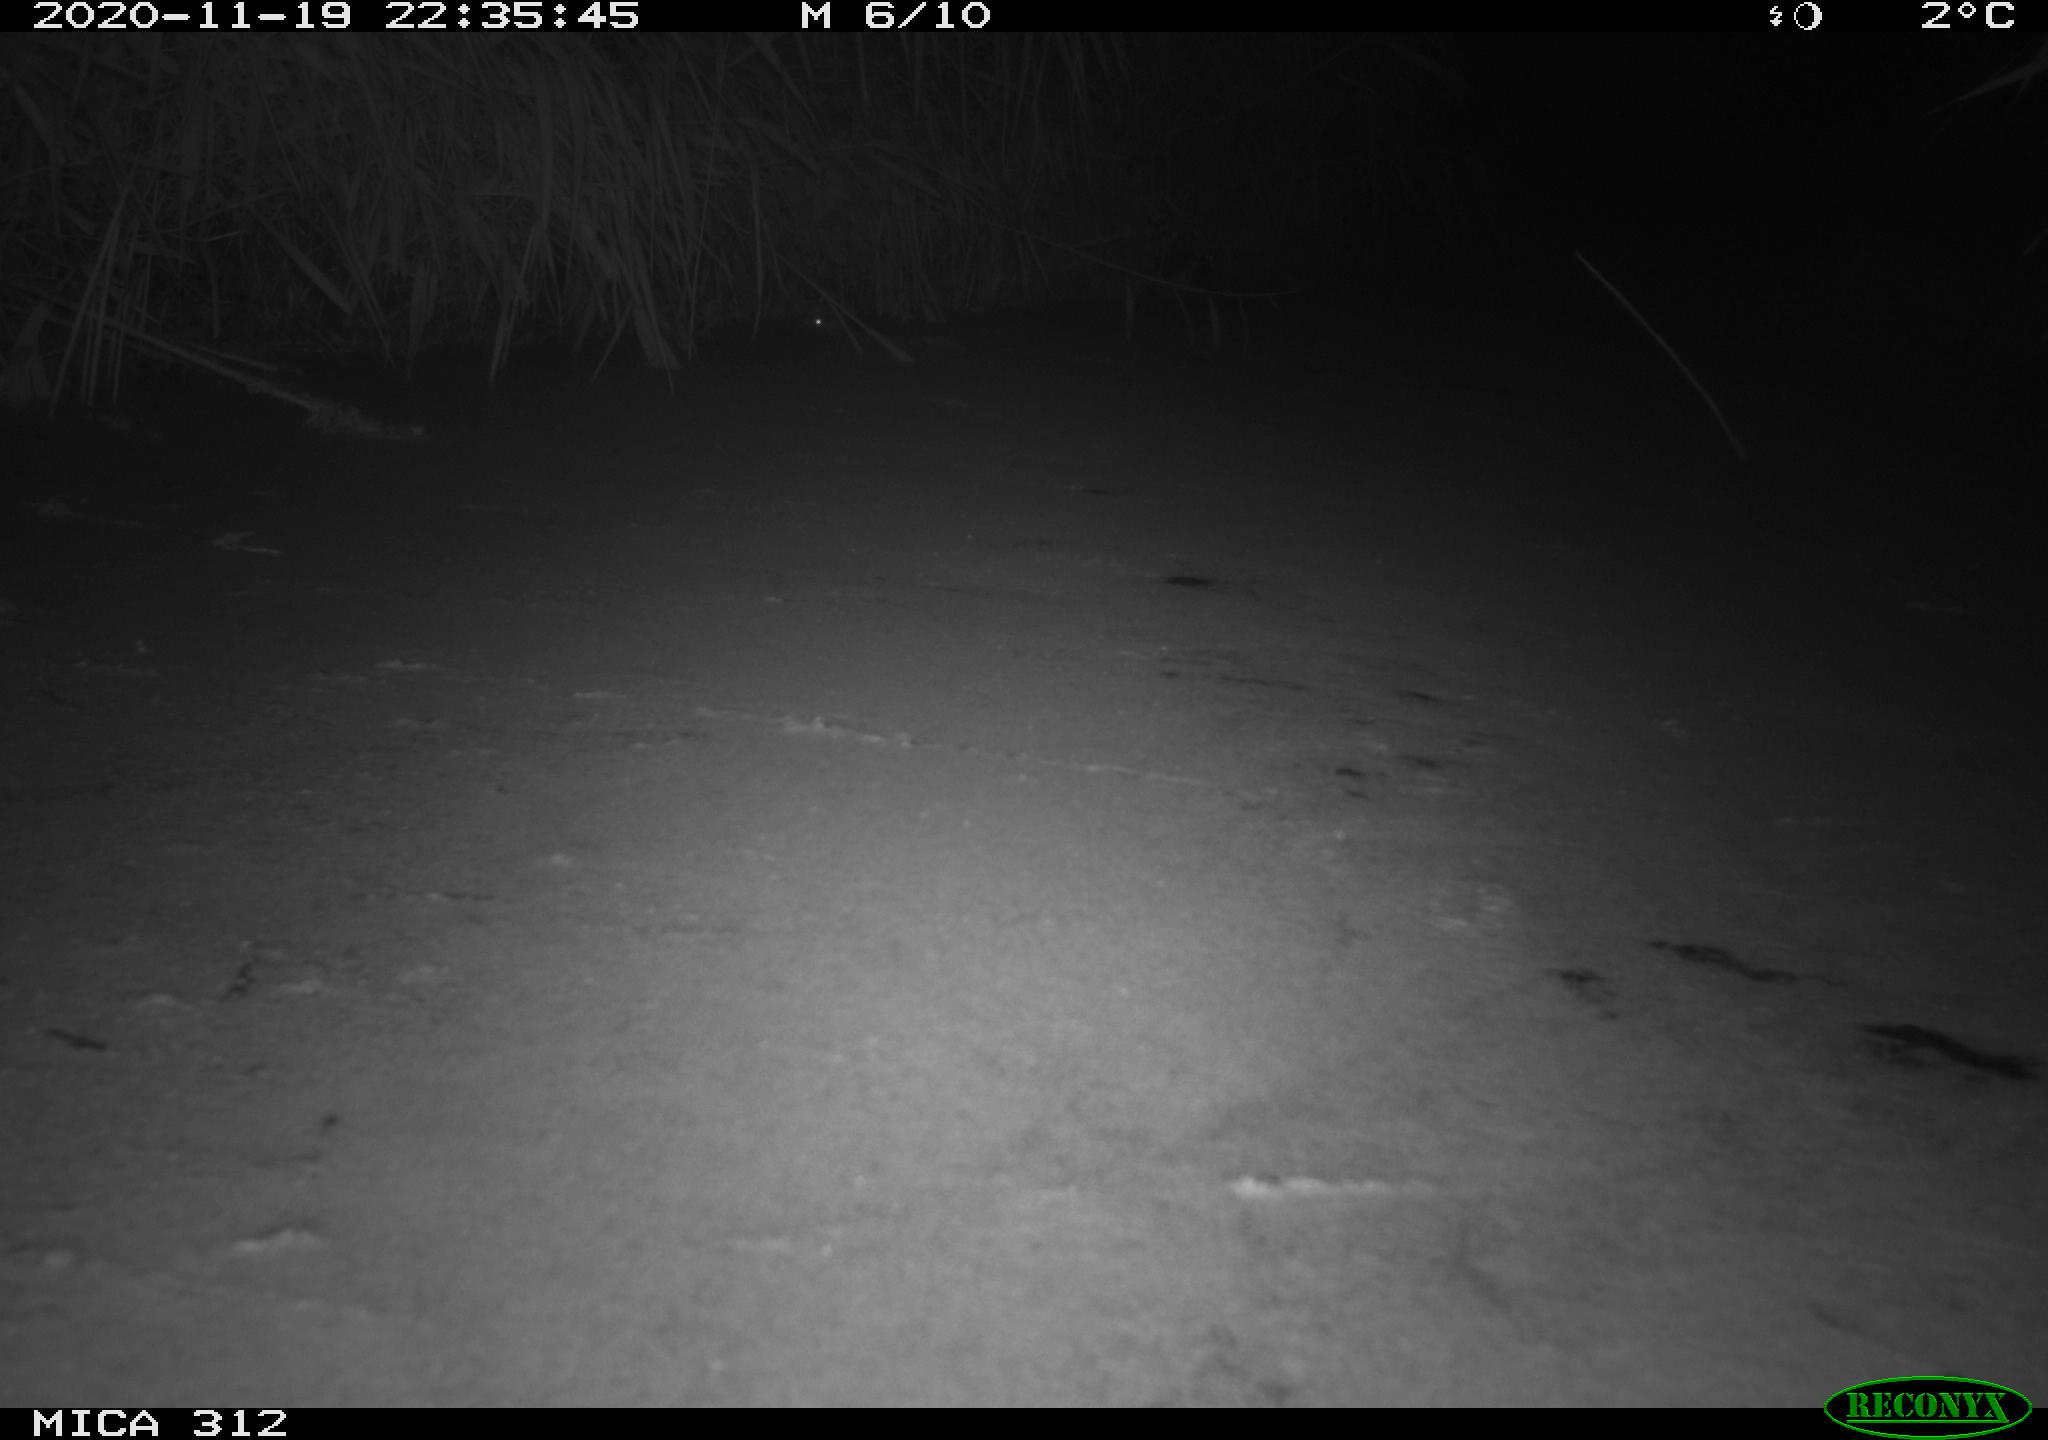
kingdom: Animalia
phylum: Chordata
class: Mammalia
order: Rodentia
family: Muridae
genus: Rattus
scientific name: Rattus norvegicus
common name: Brown rat
